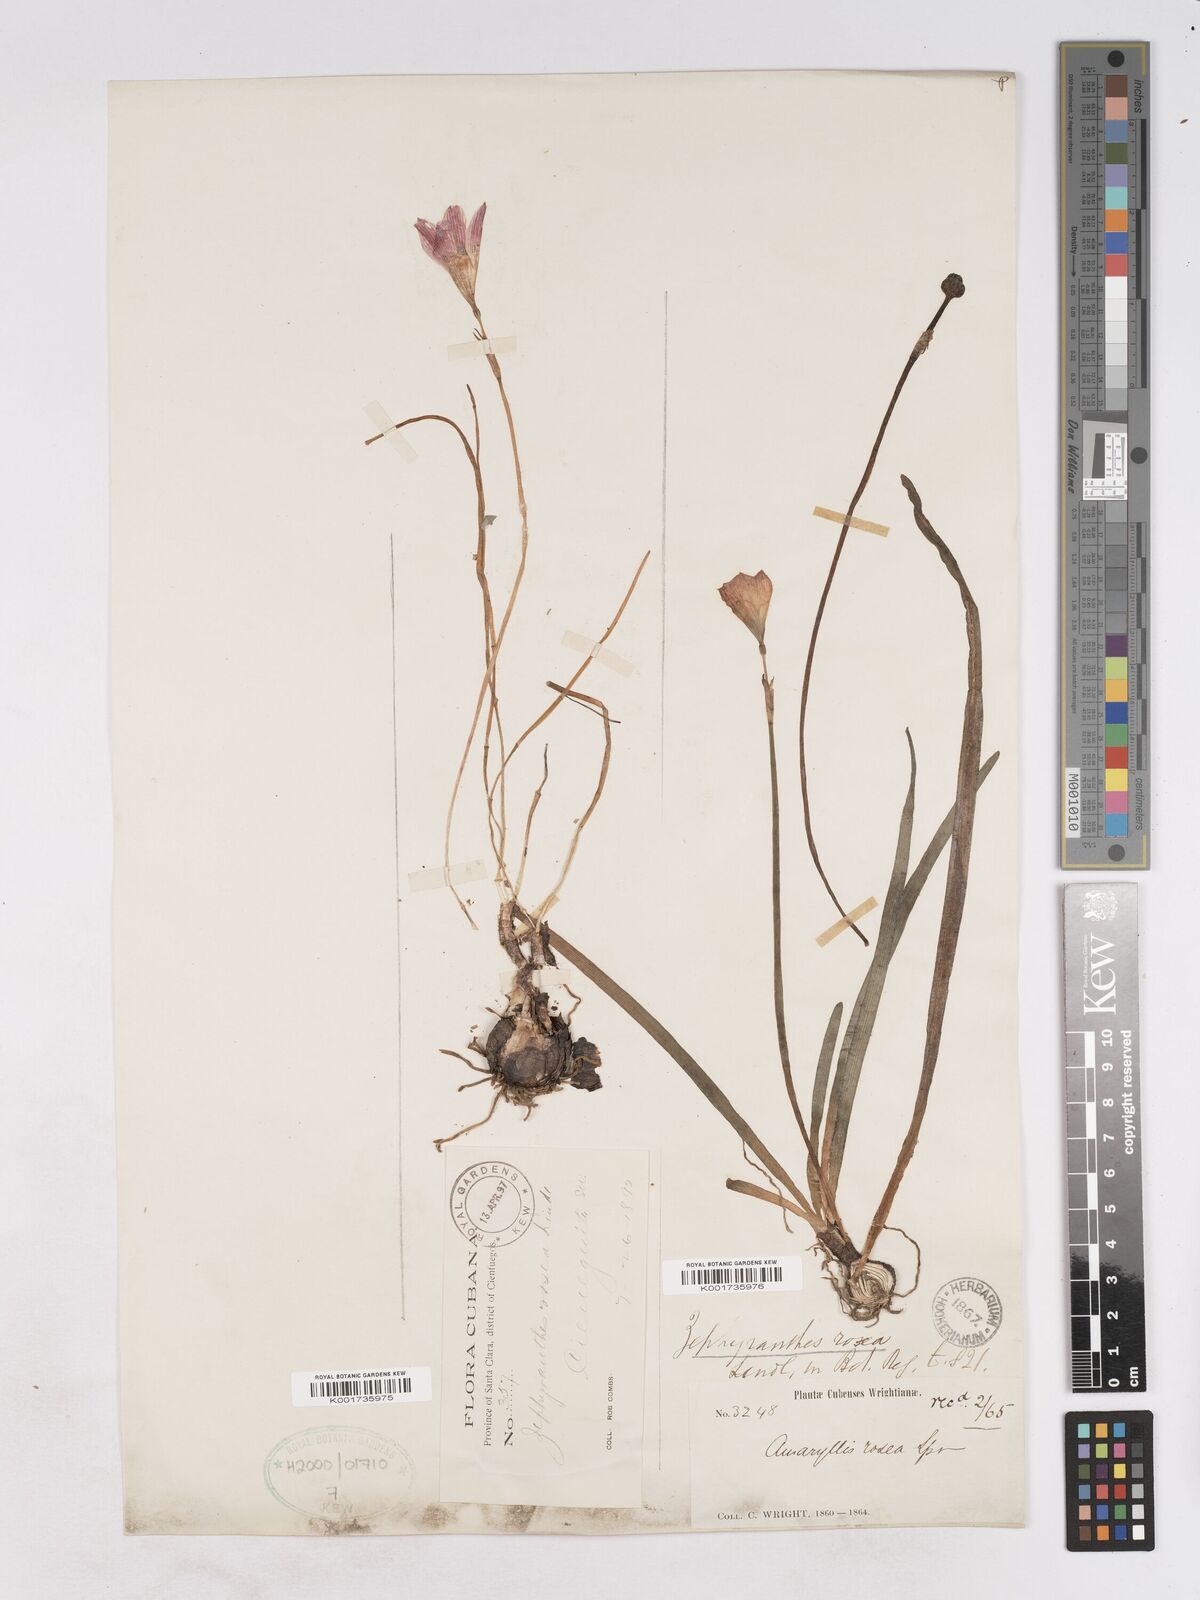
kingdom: Plantae
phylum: Tracheophyta
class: Liliopsida
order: Asparagales
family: Amaryllidaceae
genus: Zephyranthes
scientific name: Zephyranthes rosea
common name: Cuban zephyrlily
